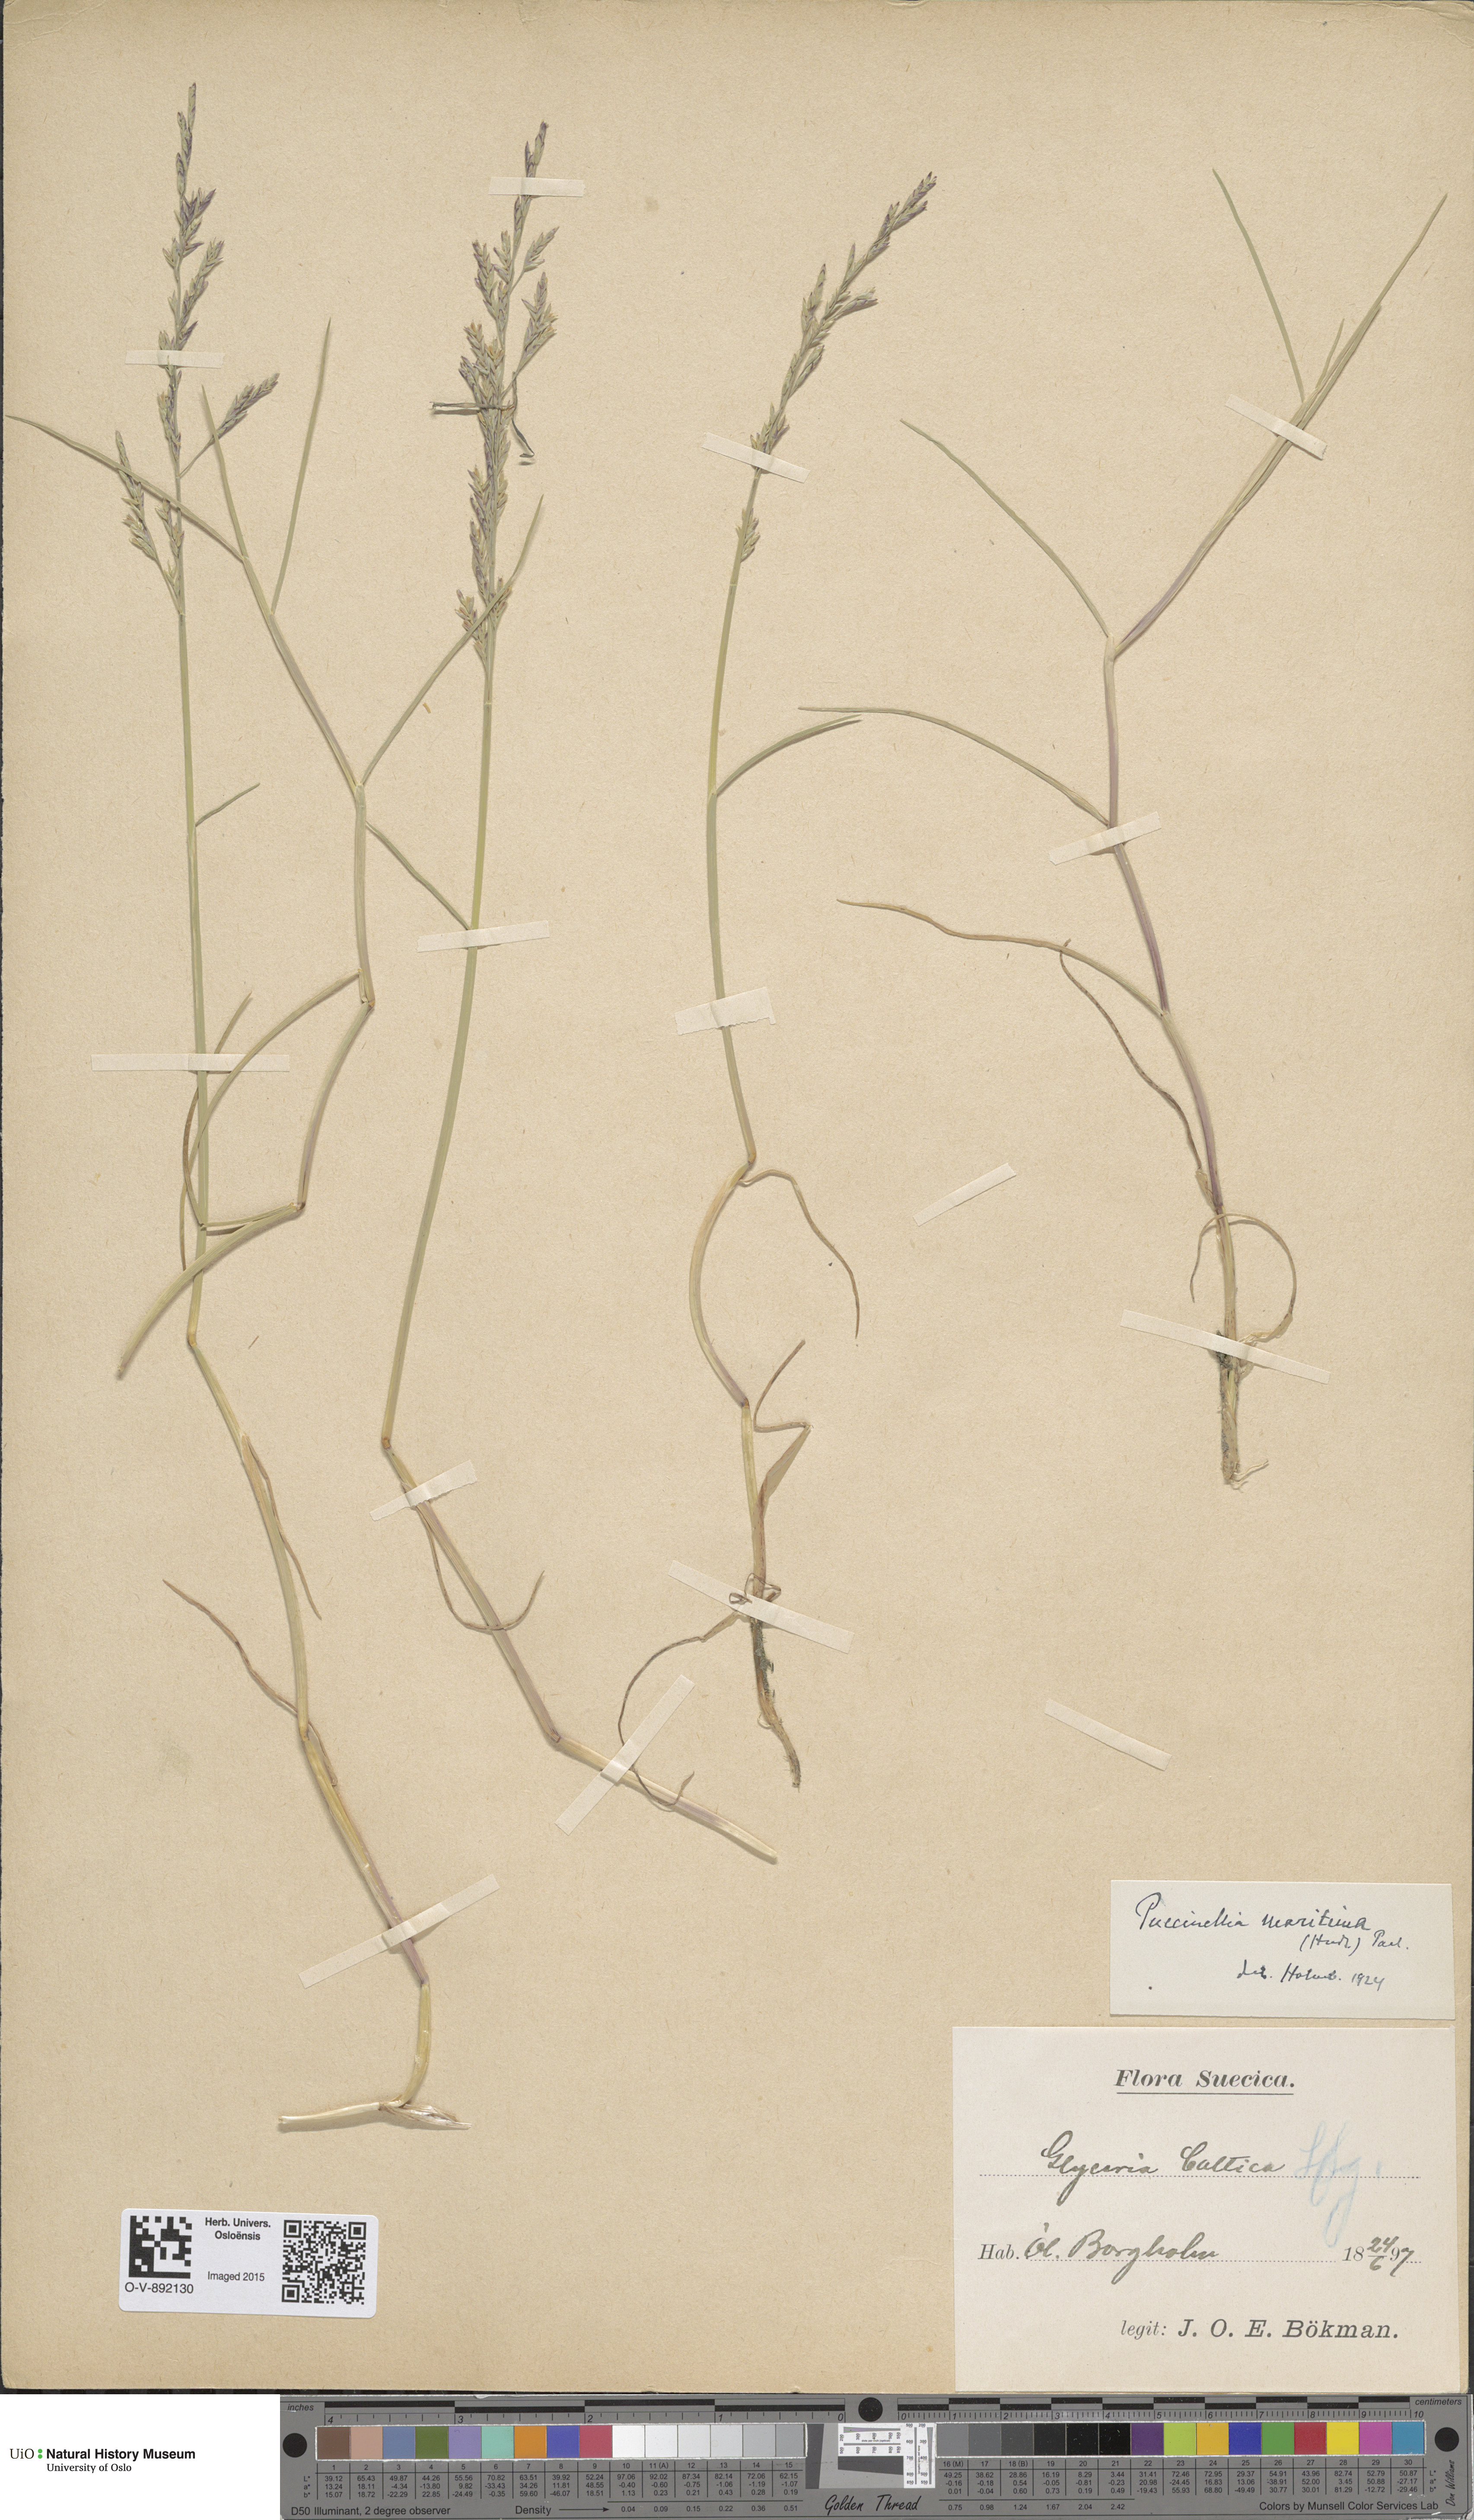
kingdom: Plantae
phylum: Tracheophyta
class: Liliopsida
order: Poales
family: Poaceae
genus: Puccinellia
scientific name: Puccinellia maritima
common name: Common saltmarsh grass
